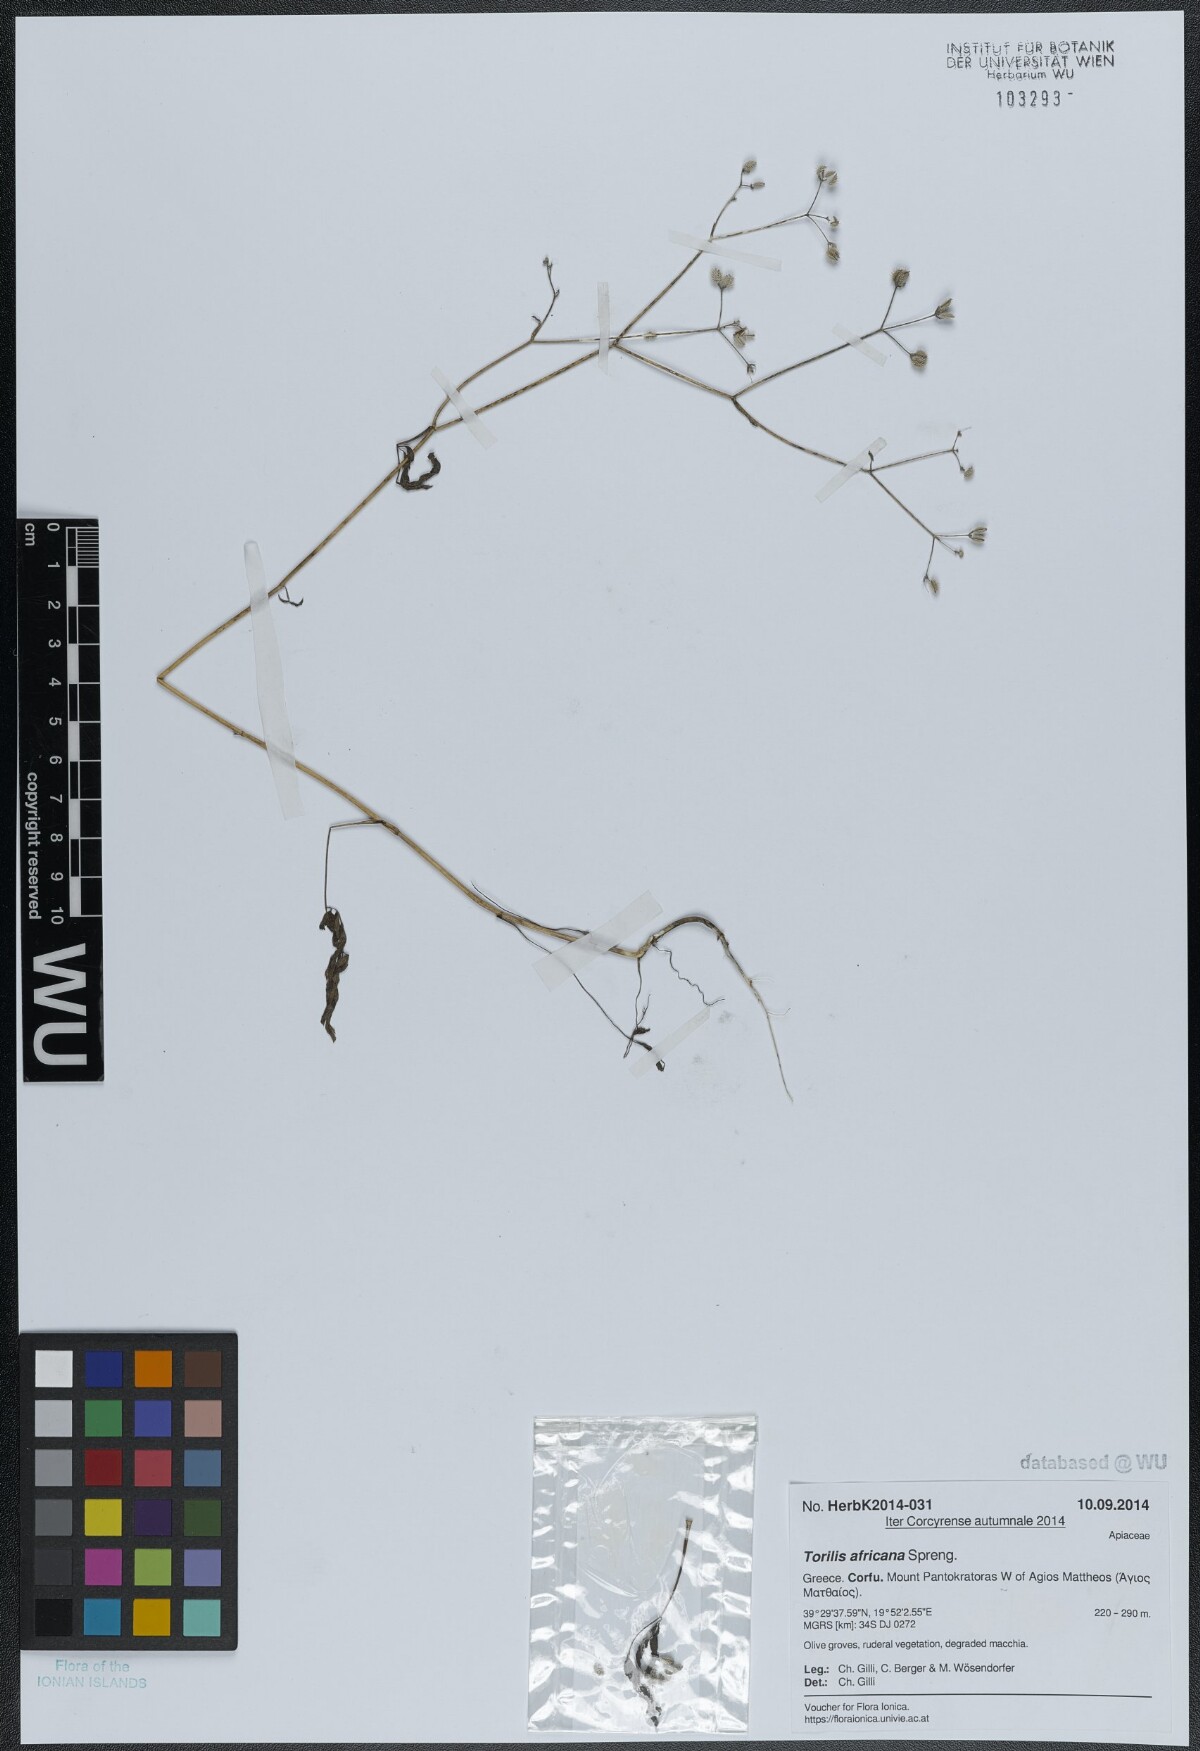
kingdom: Plantae
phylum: Tracheophyta
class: Magnoliopsida
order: Apiales
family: Apiaceae
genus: Torilis
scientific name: Torilis africana
